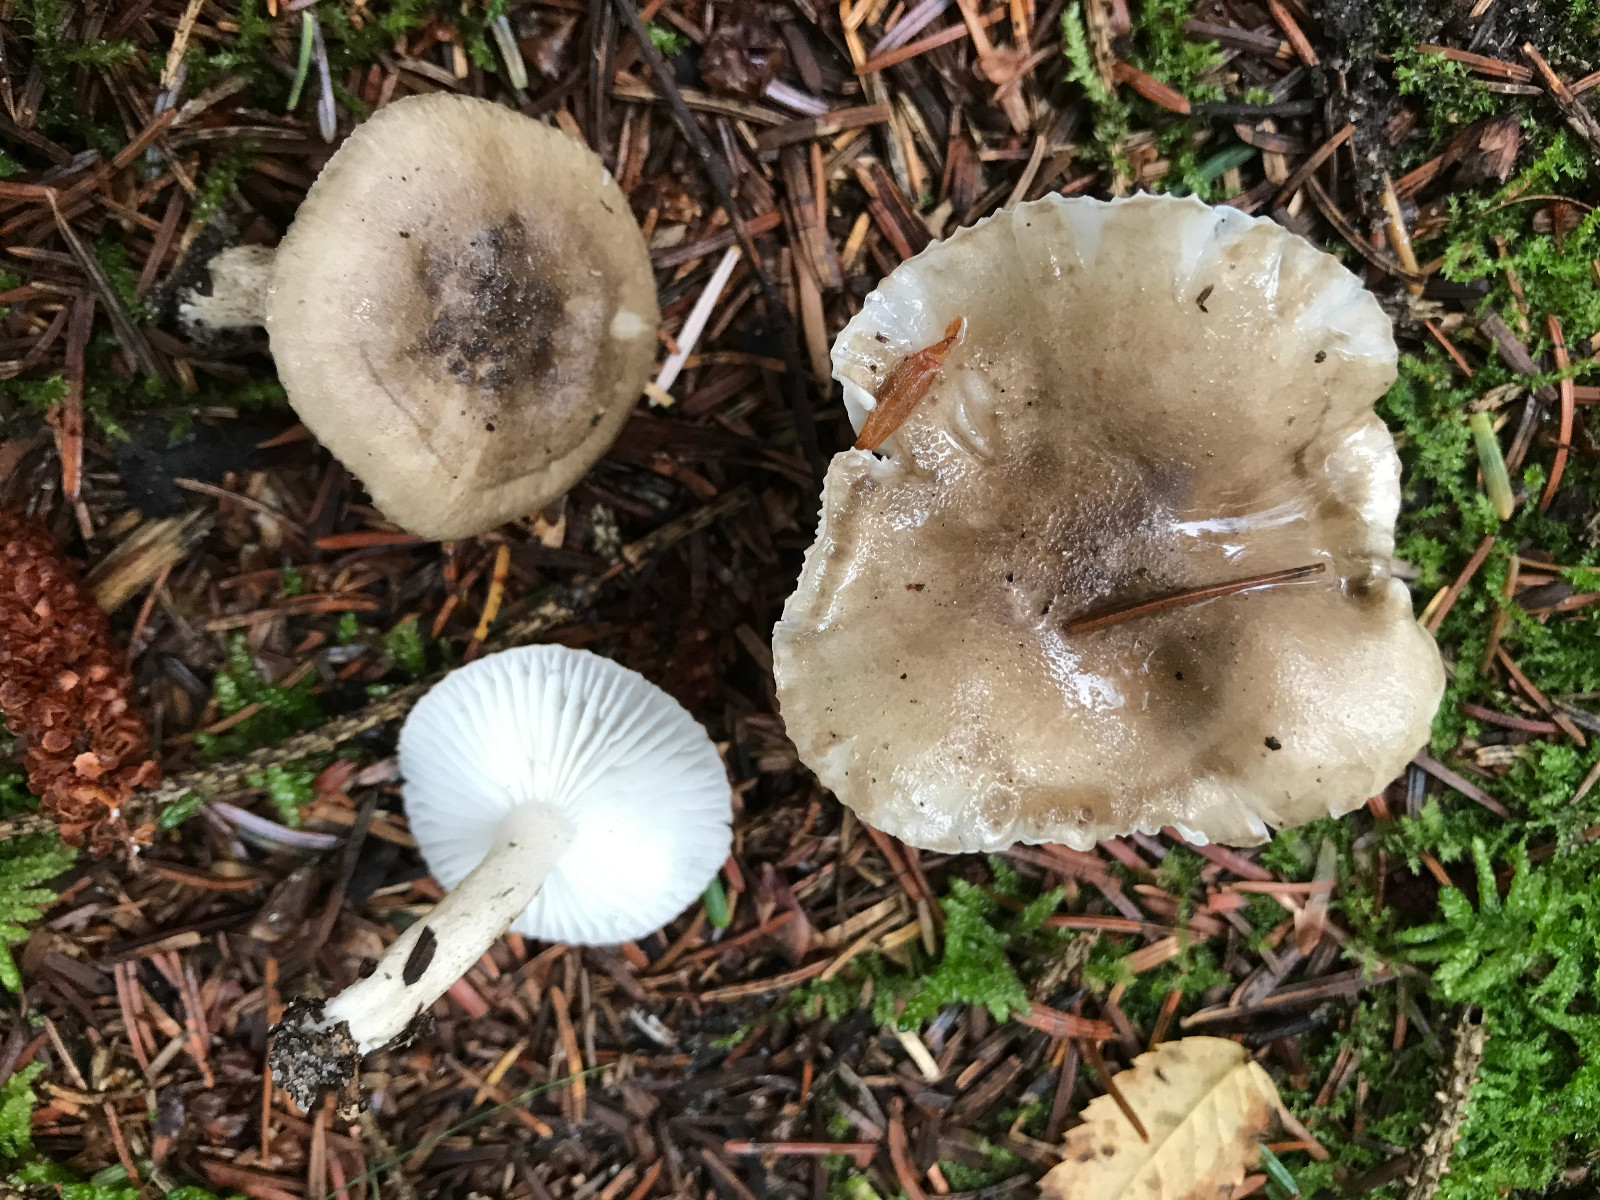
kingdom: Fungi
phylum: Basidiomycota
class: Agaricomycetes
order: Agaricales
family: Hygrophoraceae
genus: Hygrophorus
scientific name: Hygrophorus pustulatus
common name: mørkprikket sneglehat
